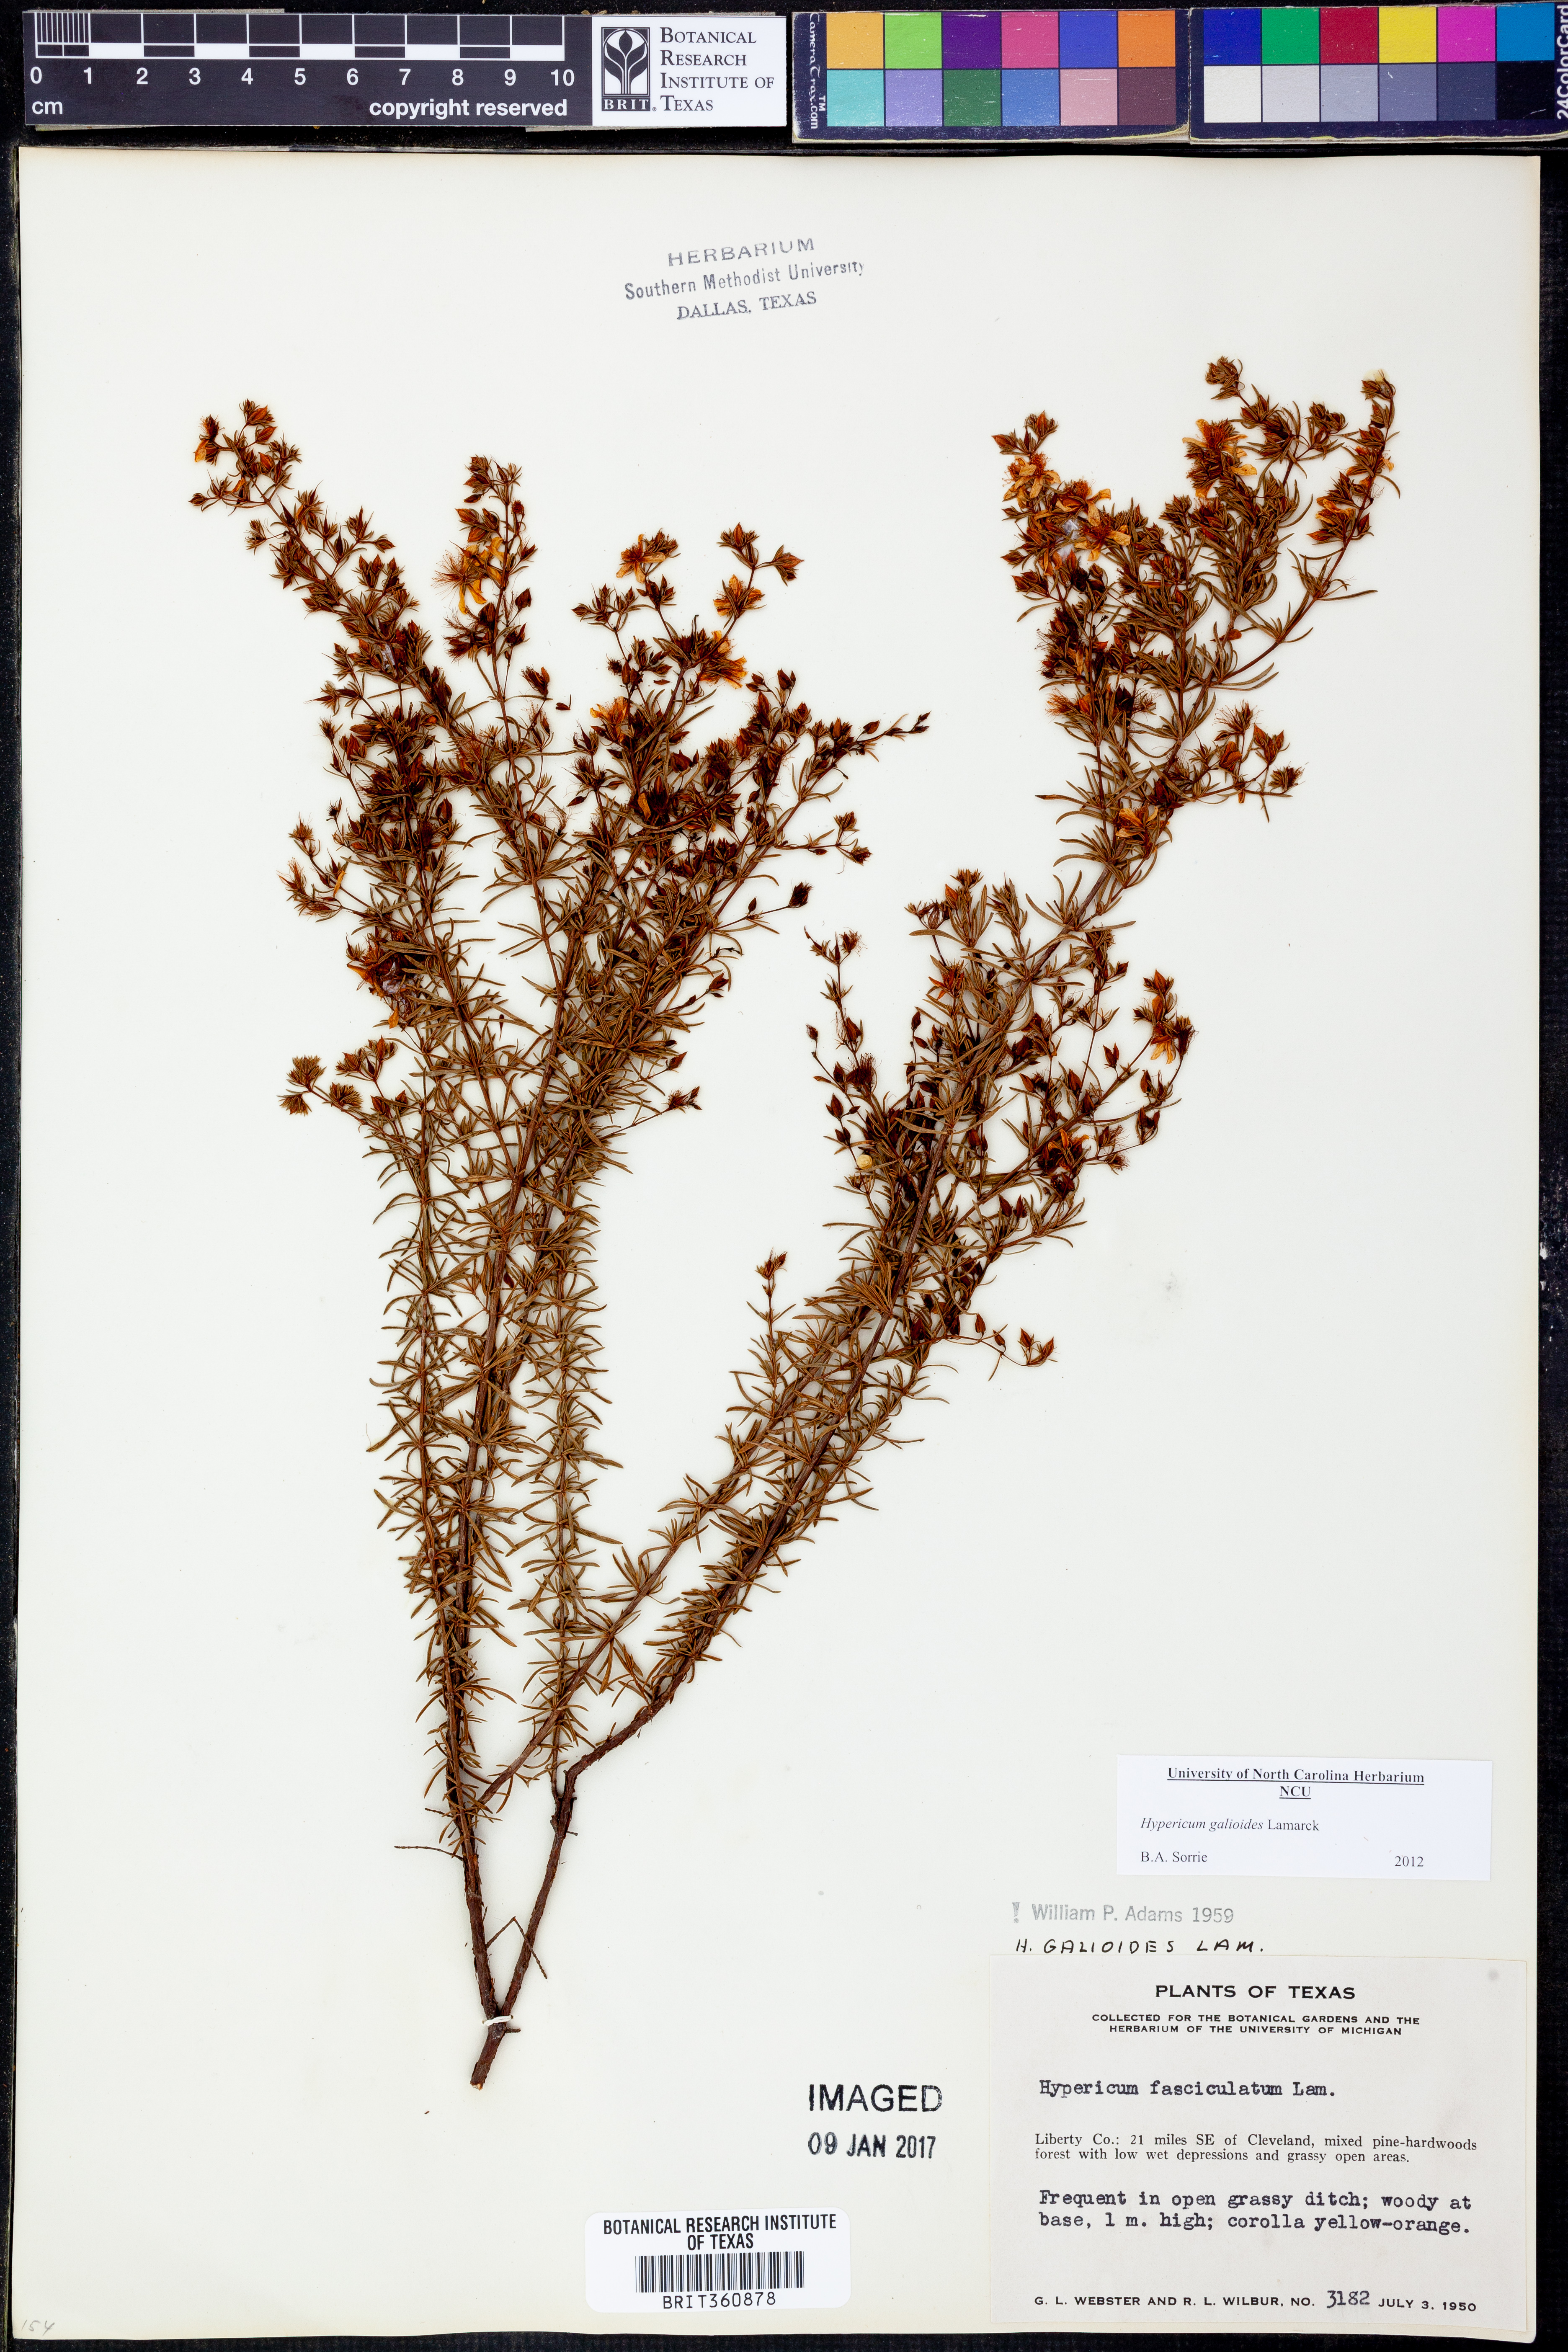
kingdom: Plantae
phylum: Tracheophyta
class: Magnoliopsida
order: Malpighiales
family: Hypericaceae
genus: Hypericum
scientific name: Hypericum galioides
